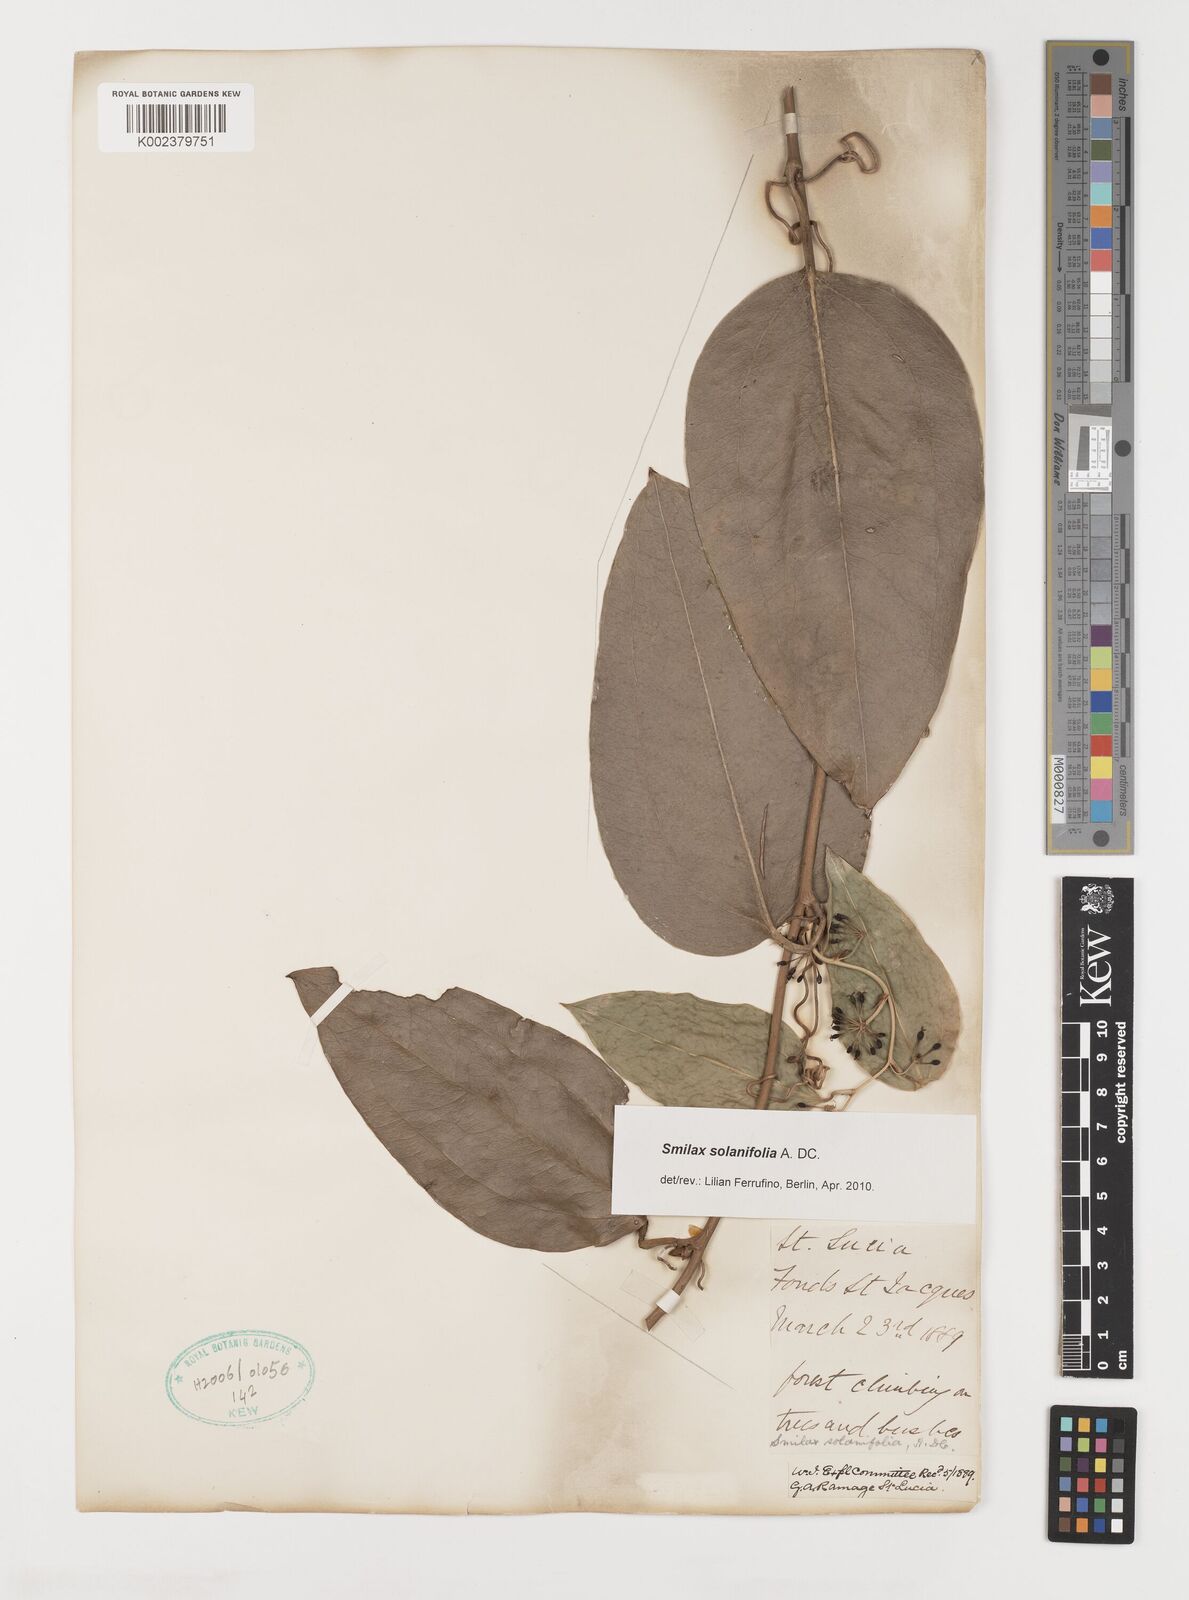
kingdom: Plantae
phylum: Tracheophyta
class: Liliopsida
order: Liliales
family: Smilacaceae
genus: Smilax
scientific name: Smilax solanifolia
